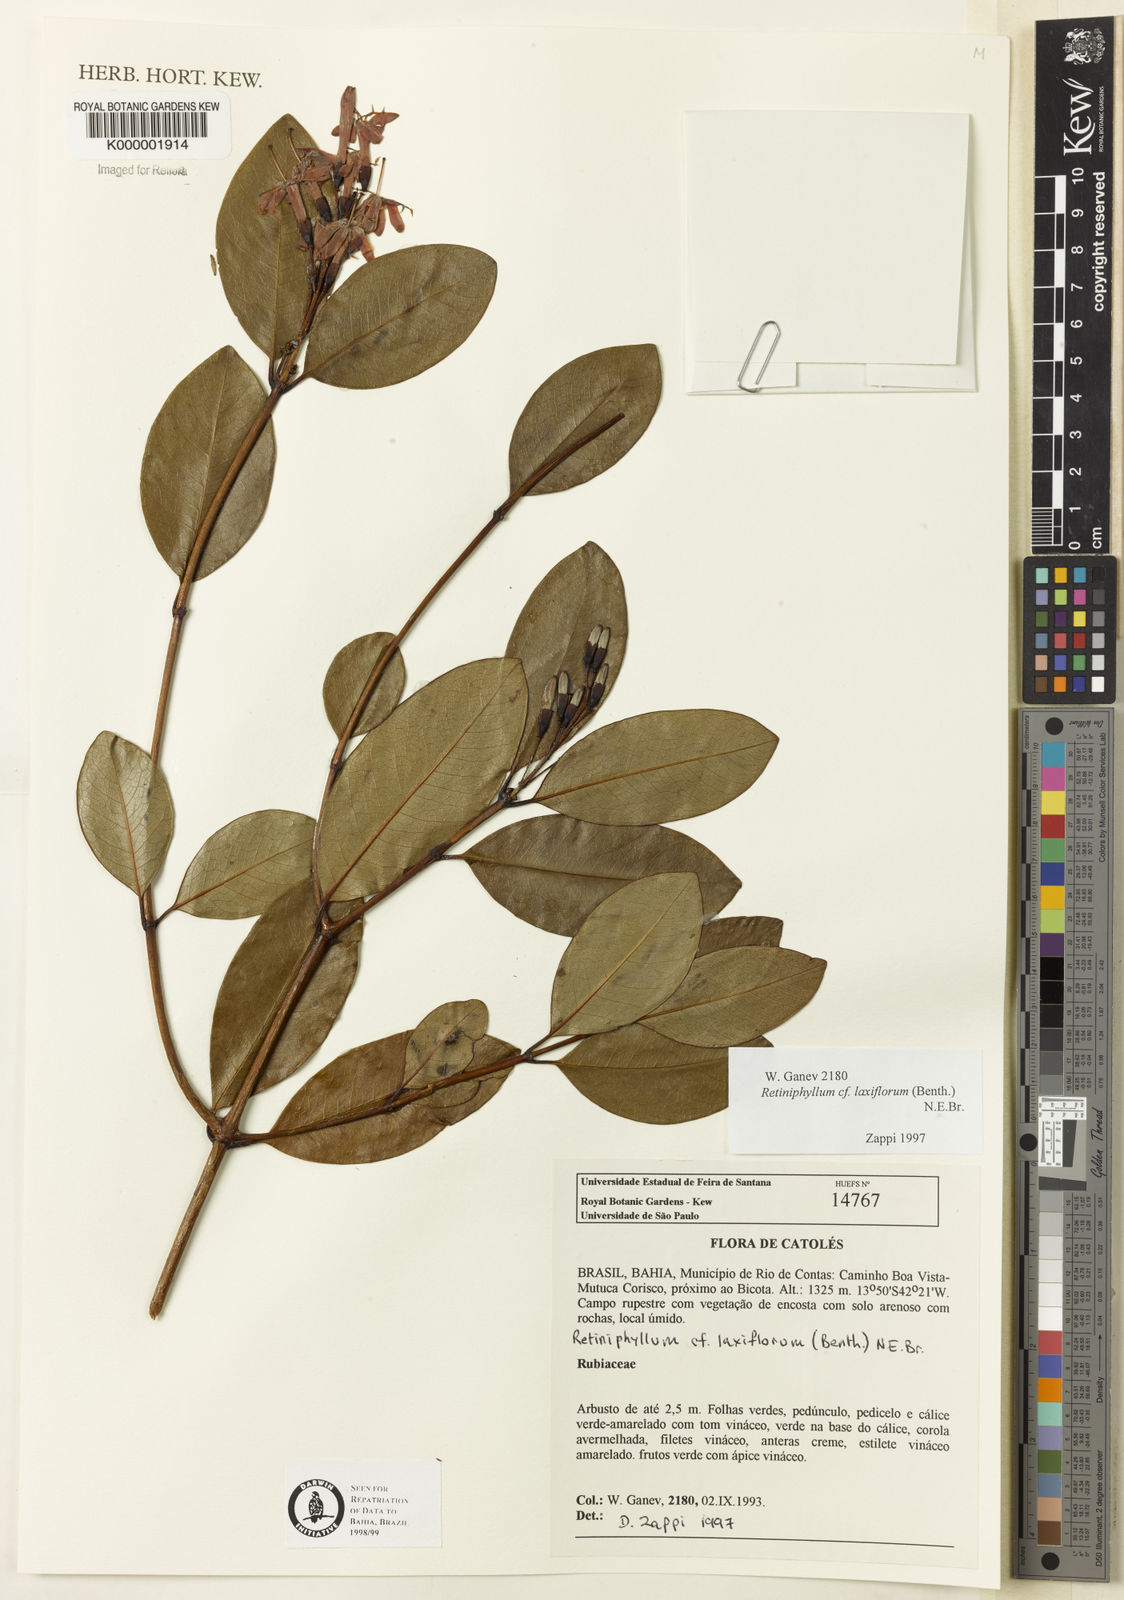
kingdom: Plantae
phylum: Tracheophyta
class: Magnoliopsida
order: Gentianales
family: Rubiaceae
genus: Retiniphyllum
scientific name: Retiniphyllum laxiflorum
